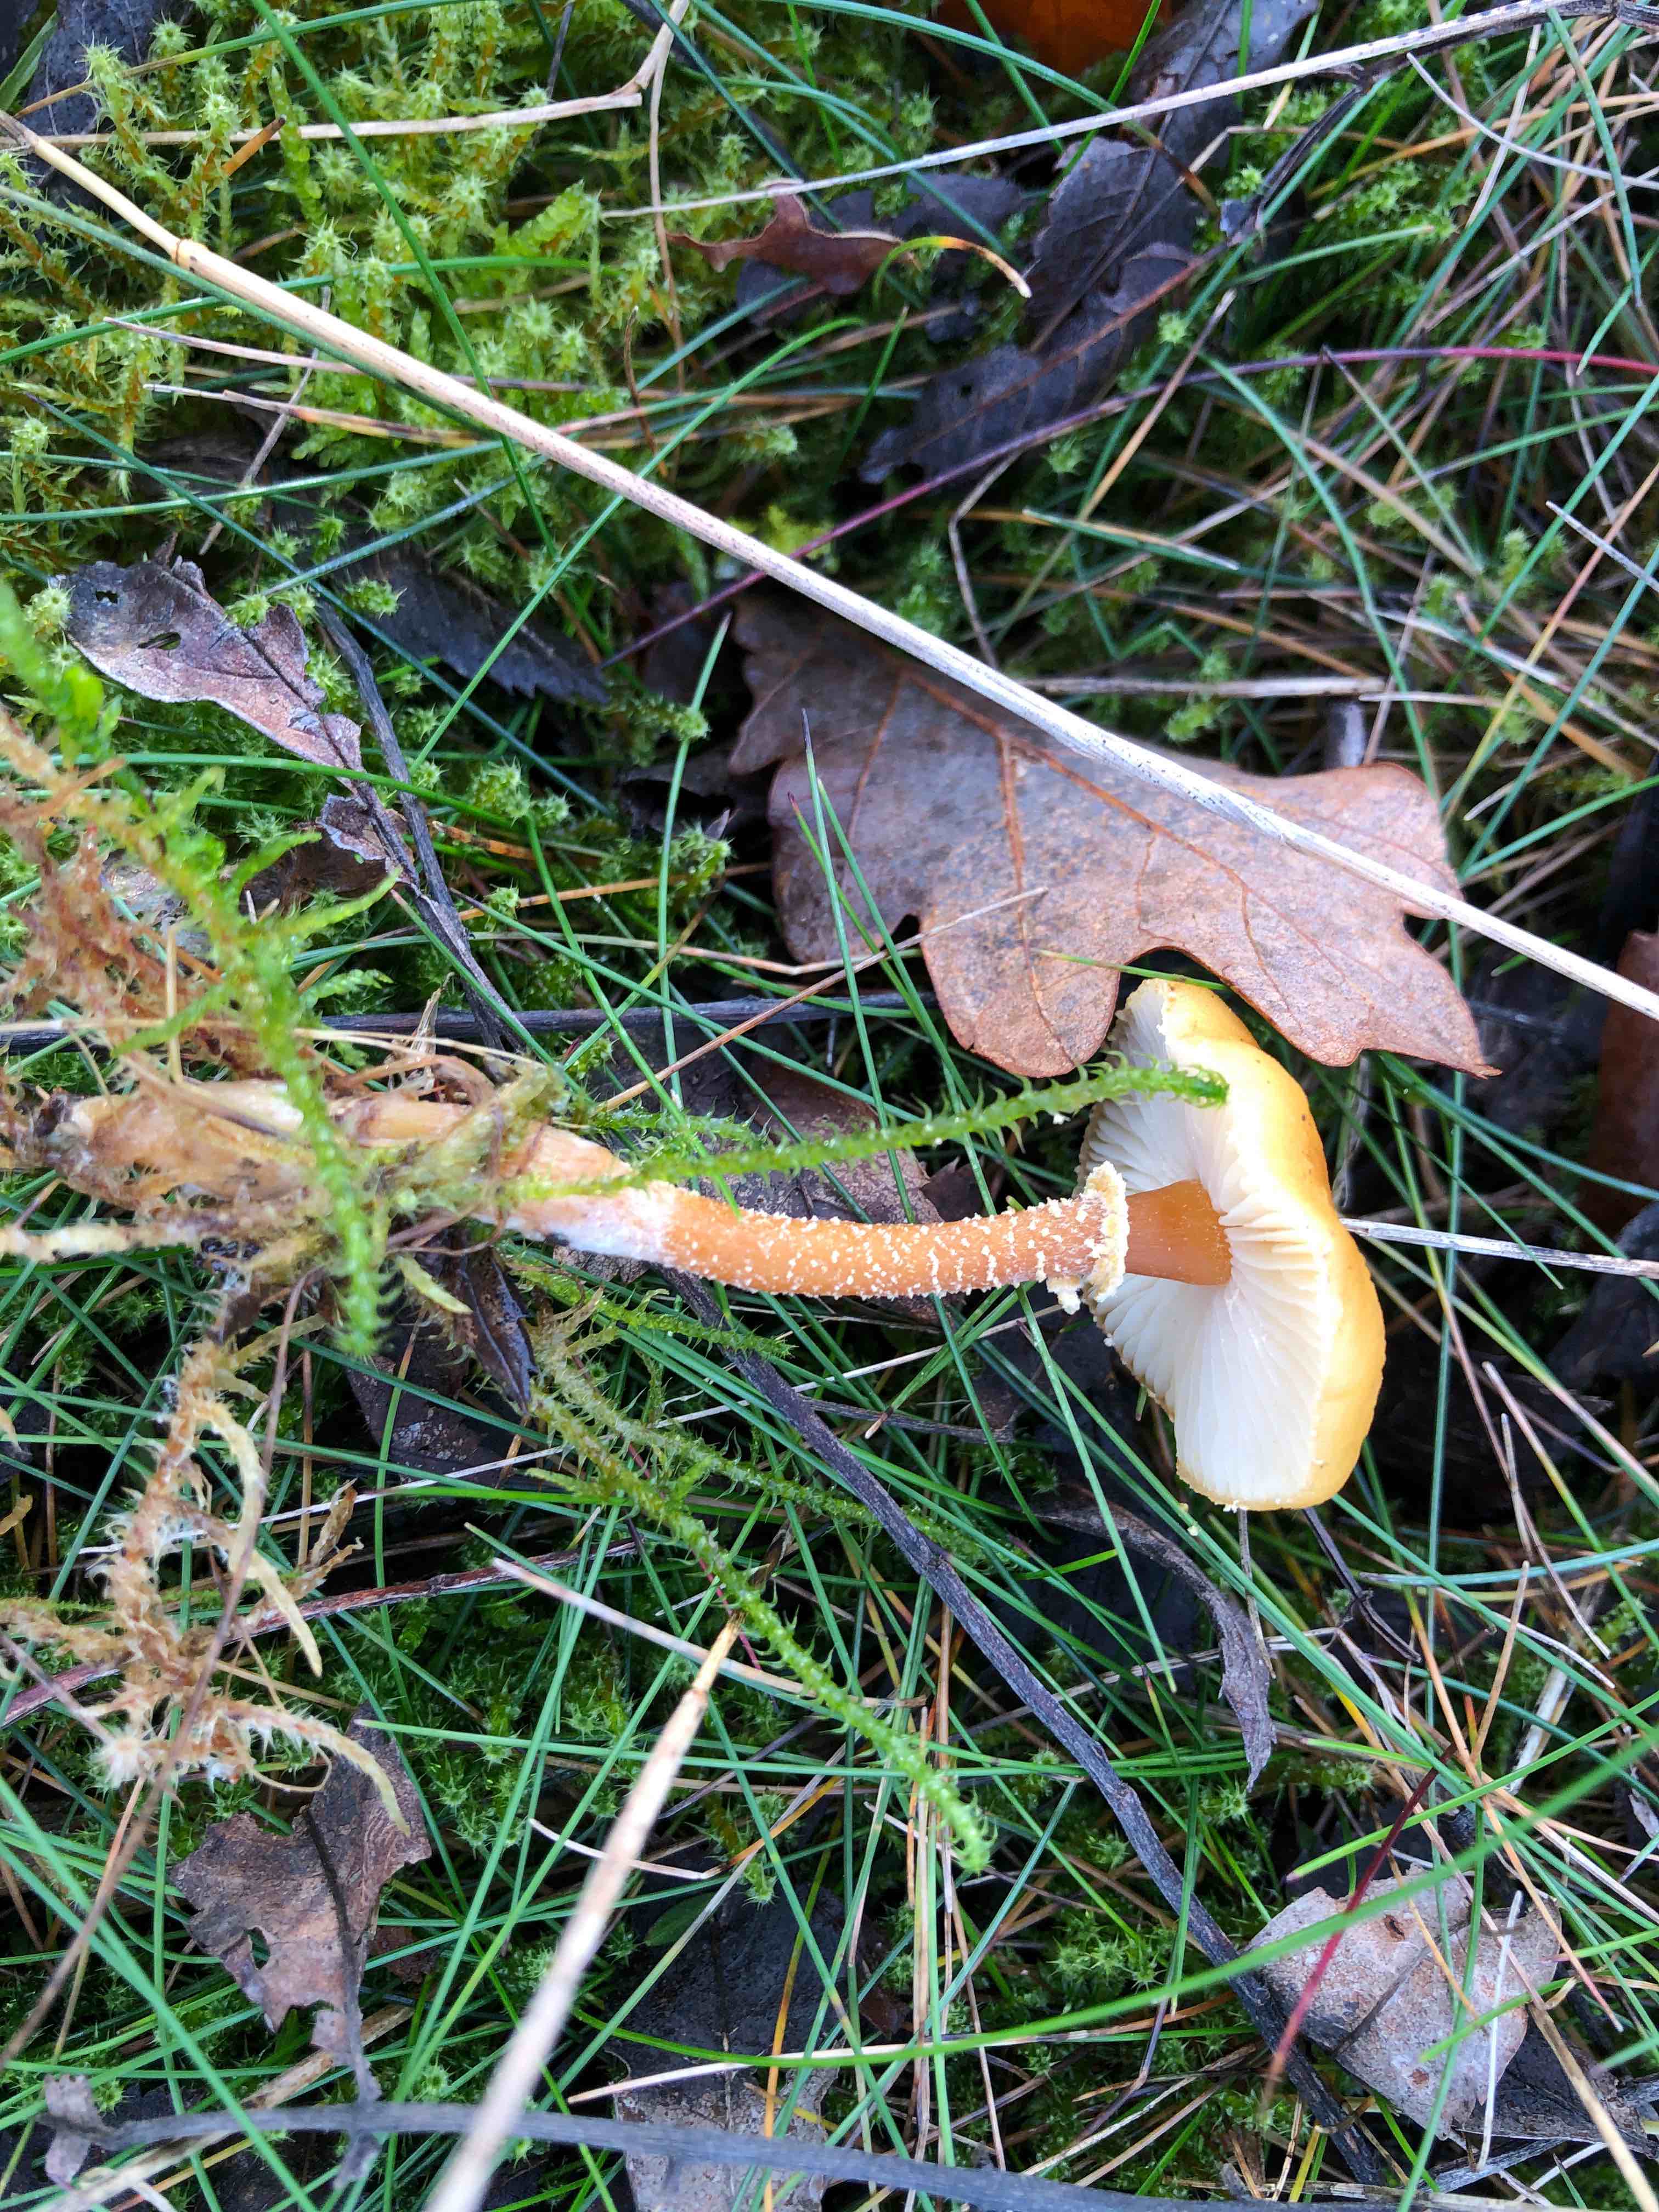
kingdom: Fungi
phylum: Basidiomycota
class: Agaricomycetes
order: Agaricales
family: Tricholomataceae
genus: Cystoderma
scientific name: Cystoderma amianthinum
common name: okkergul grynhat
